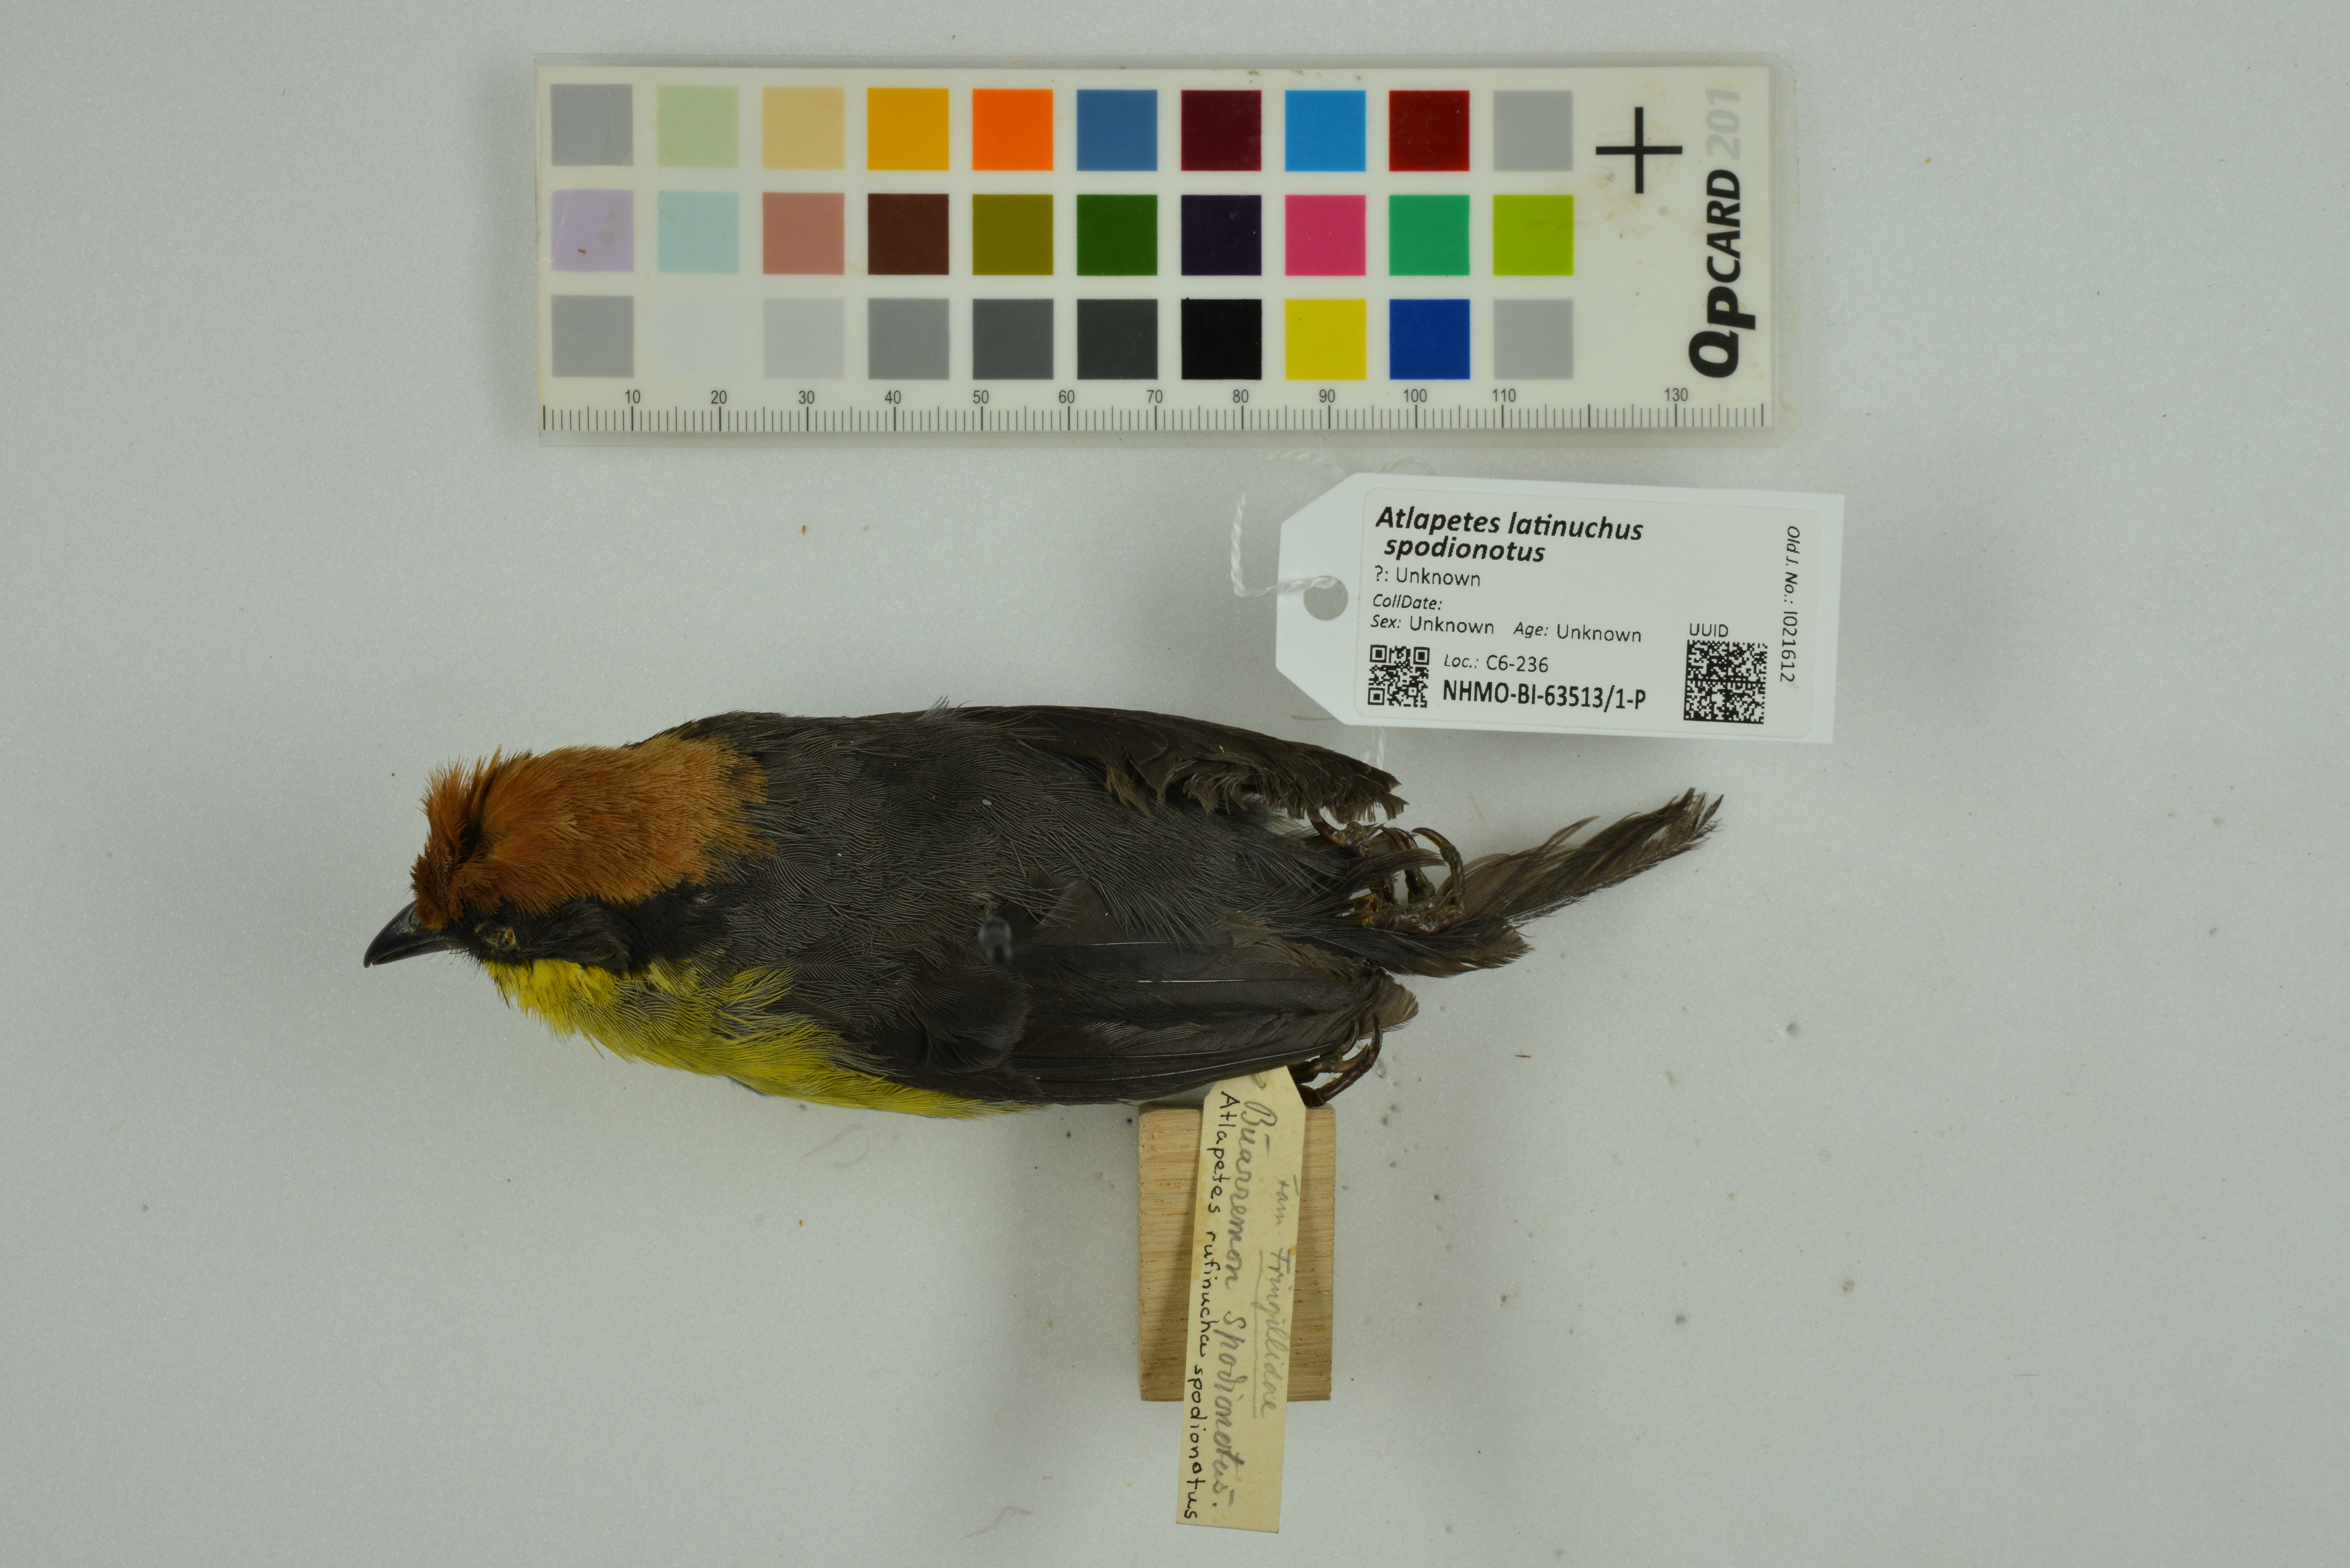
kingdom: Animalia
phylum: Chordata
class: Aves
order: Passeriformes
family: Passerellidae
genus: Atlapetes
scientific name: Atlapetes latinuchus
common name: Yellow-breasted brushfinch
